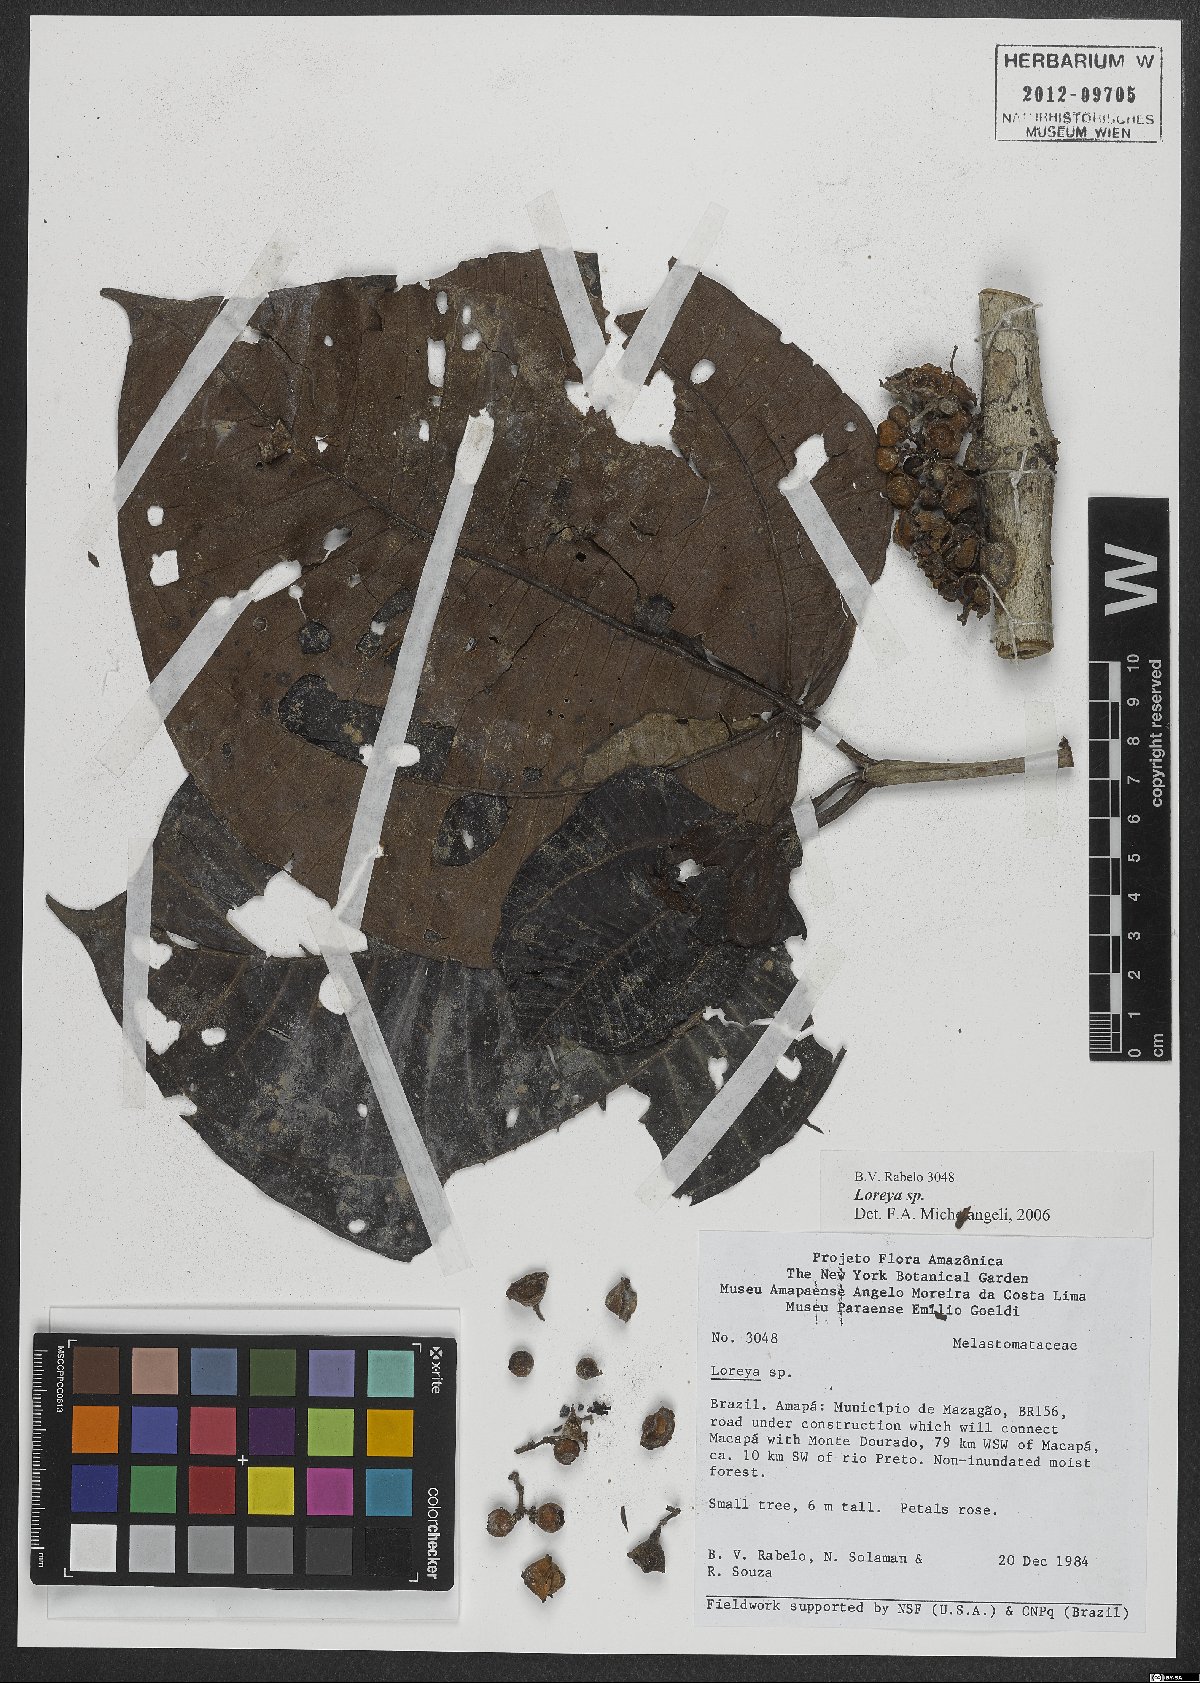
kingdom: Plantae
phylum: Tracheophyta
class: Magnoliopsida
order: Myrtales
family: Melastomataceae
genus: Bellucia
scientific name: Bellucia
